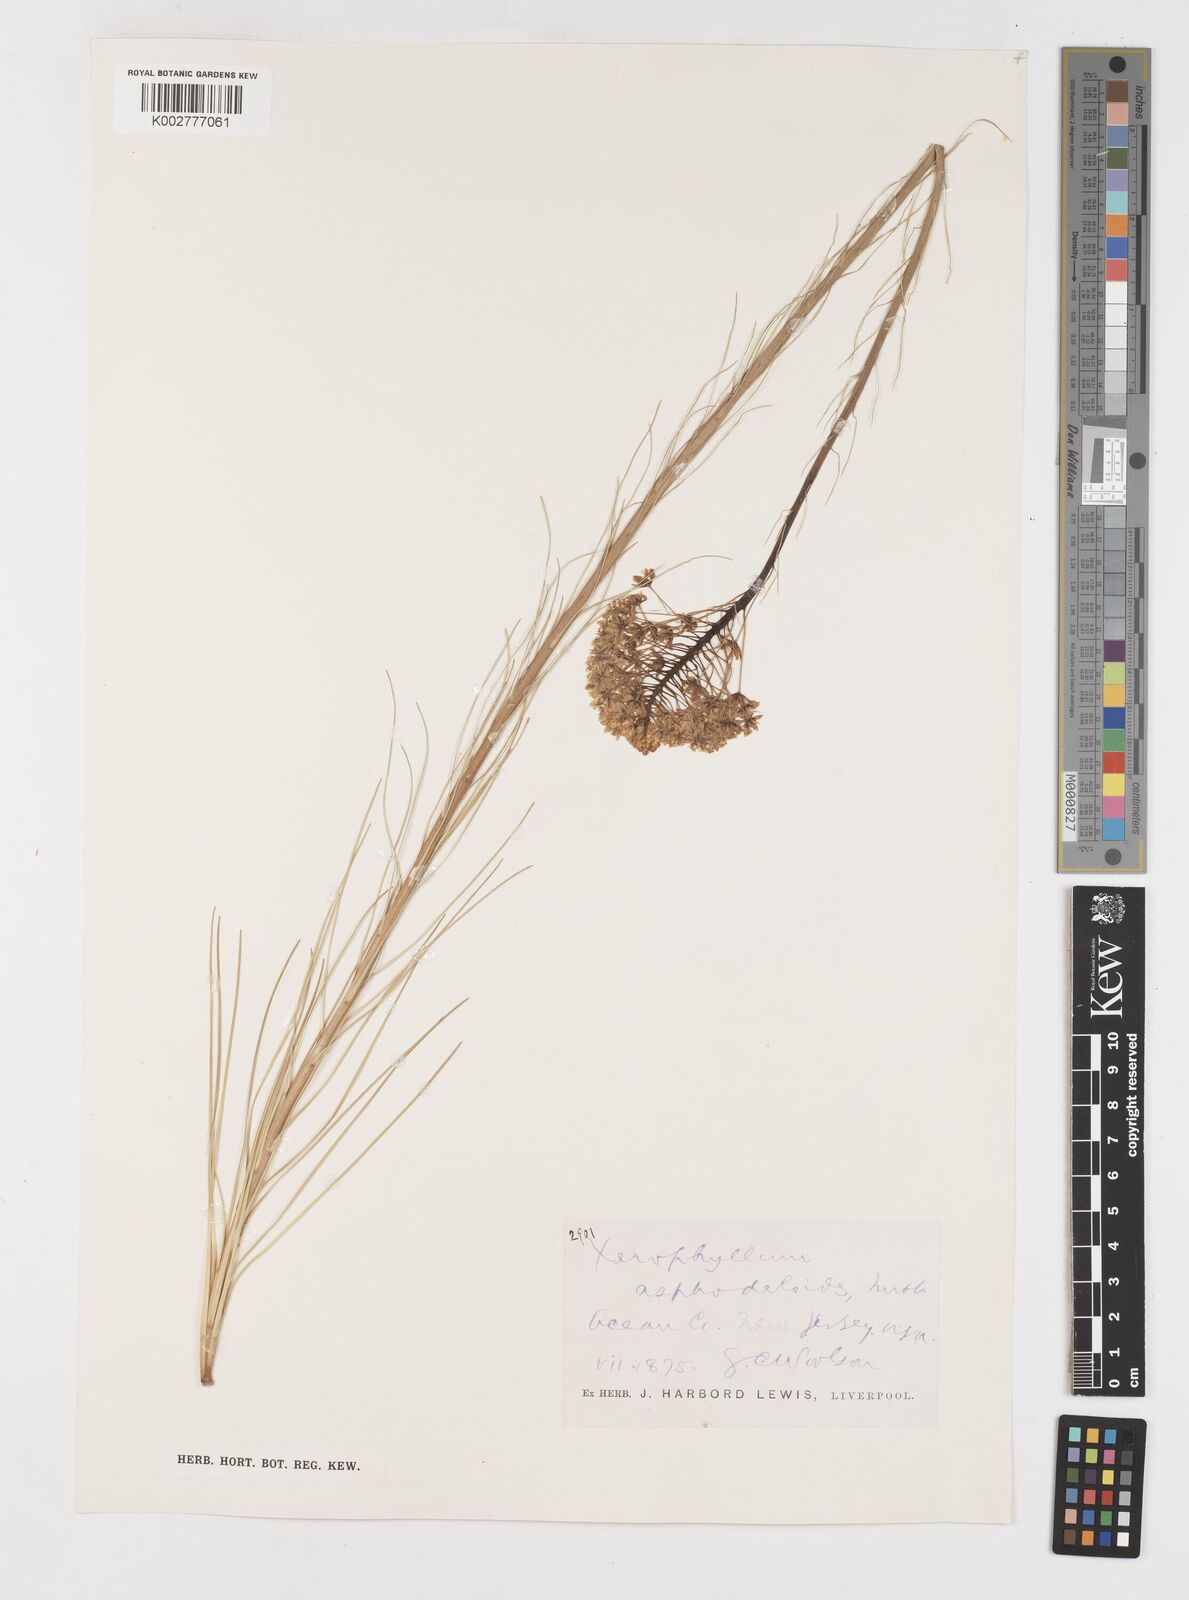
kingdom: Plantae
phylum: Tracheophyta
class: Liliopsida
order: Liliales
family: Melanthiaceae
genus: Xerophyllum
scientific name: Xerophyllum asphodeloides
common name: Mountain-asphodel
